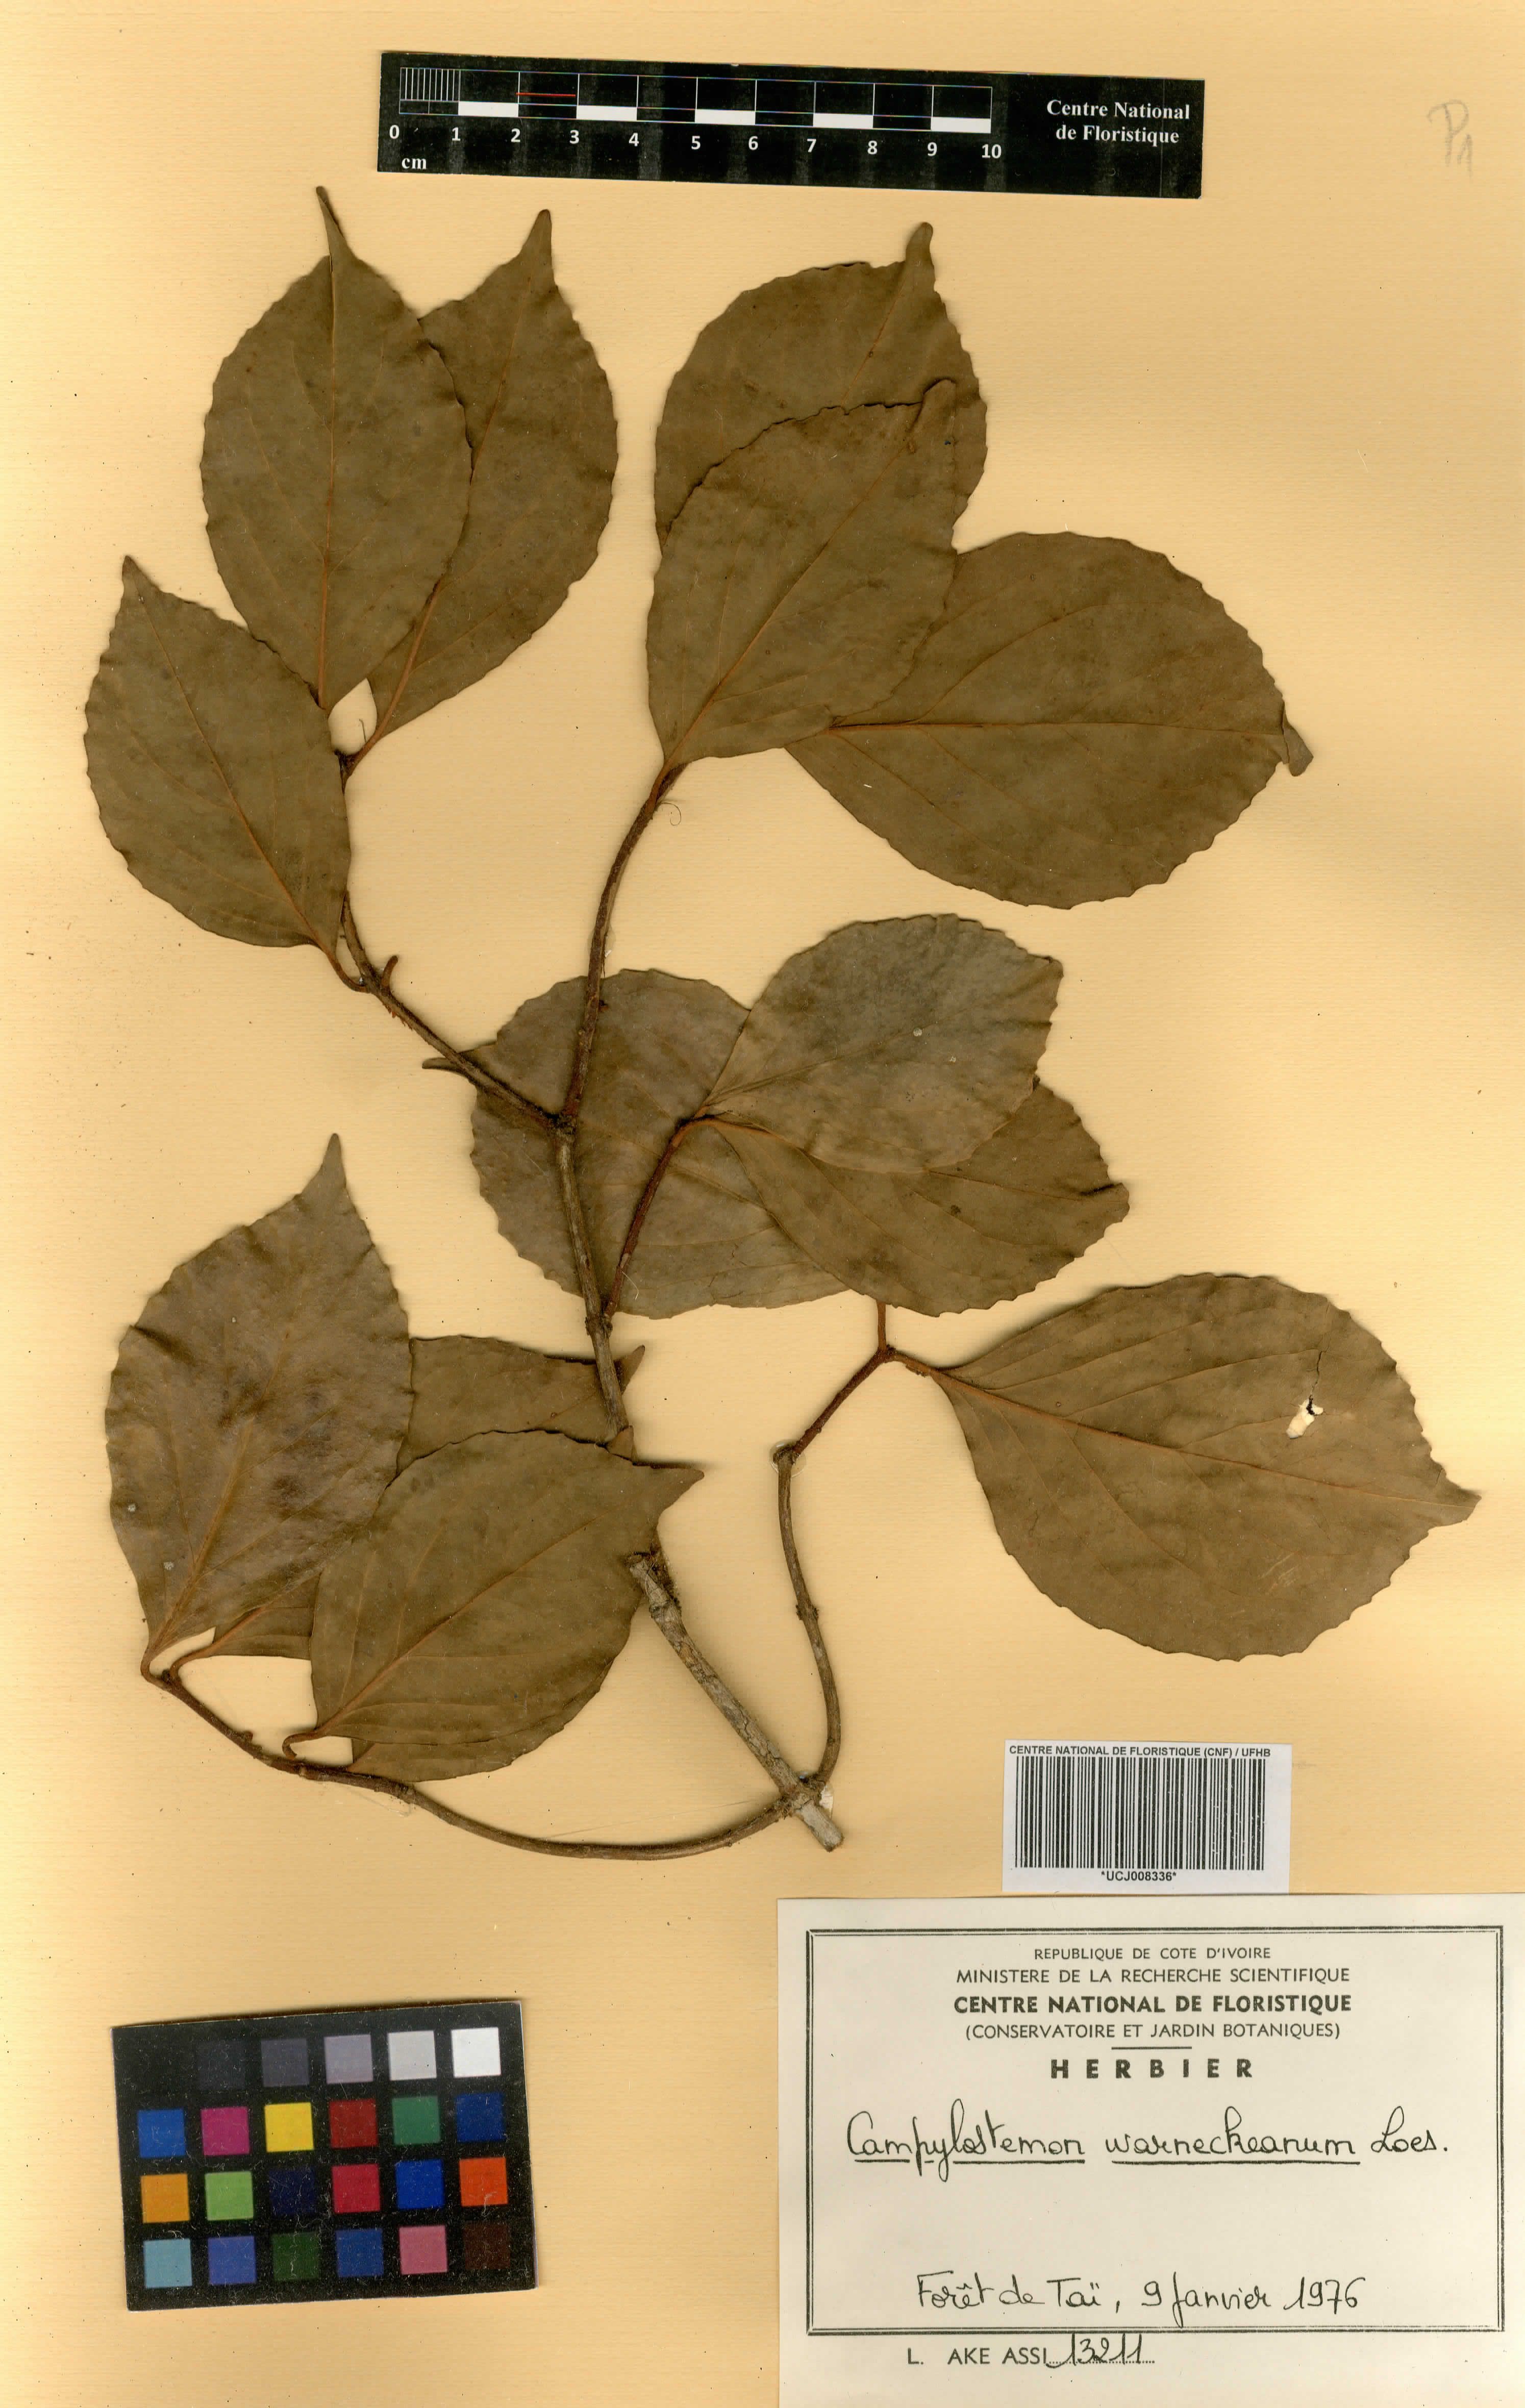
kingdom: Plantae
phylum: Tracheophyta
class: Magnoliopsida
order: Celastrales
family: Celastraceae
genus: Campylostemon
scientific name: Campylostemon warneckeanum
